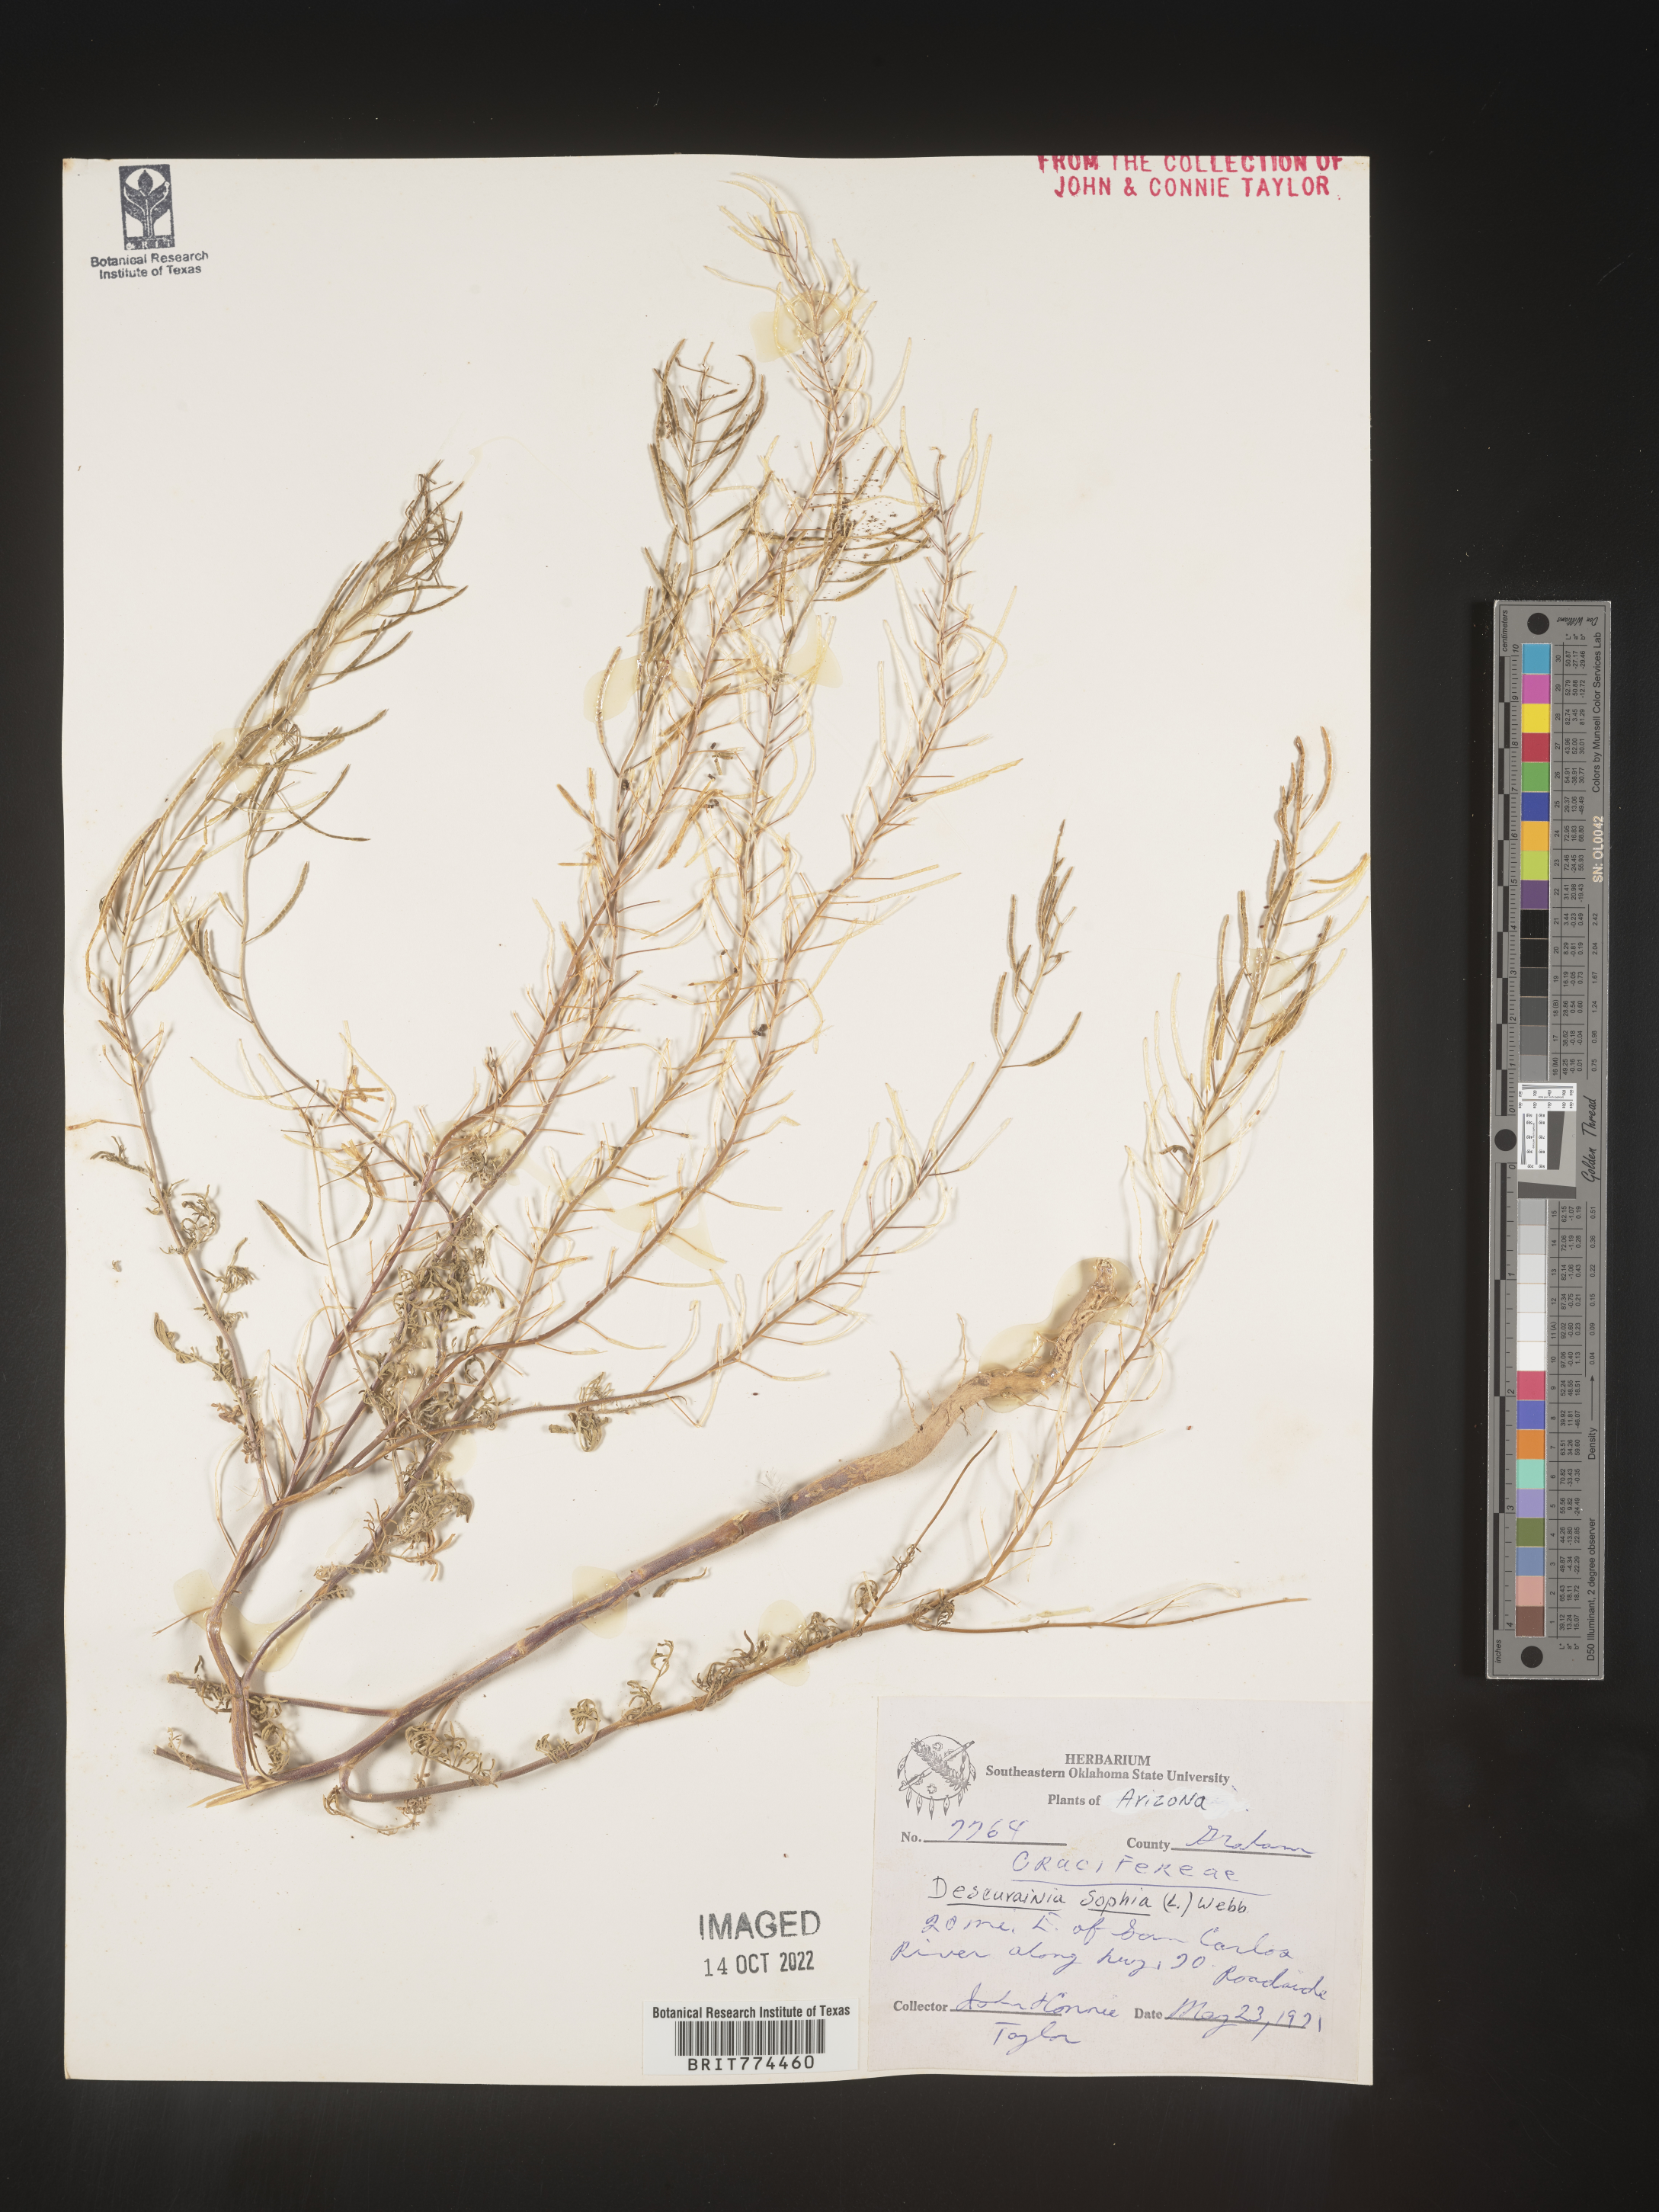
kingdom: Plantae
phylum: Tracheophyta
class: Magnoliopsida
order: Brassicales
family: Brassicaceae
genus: Descurainia
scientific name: Descurainia sophia
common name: Flixweed
